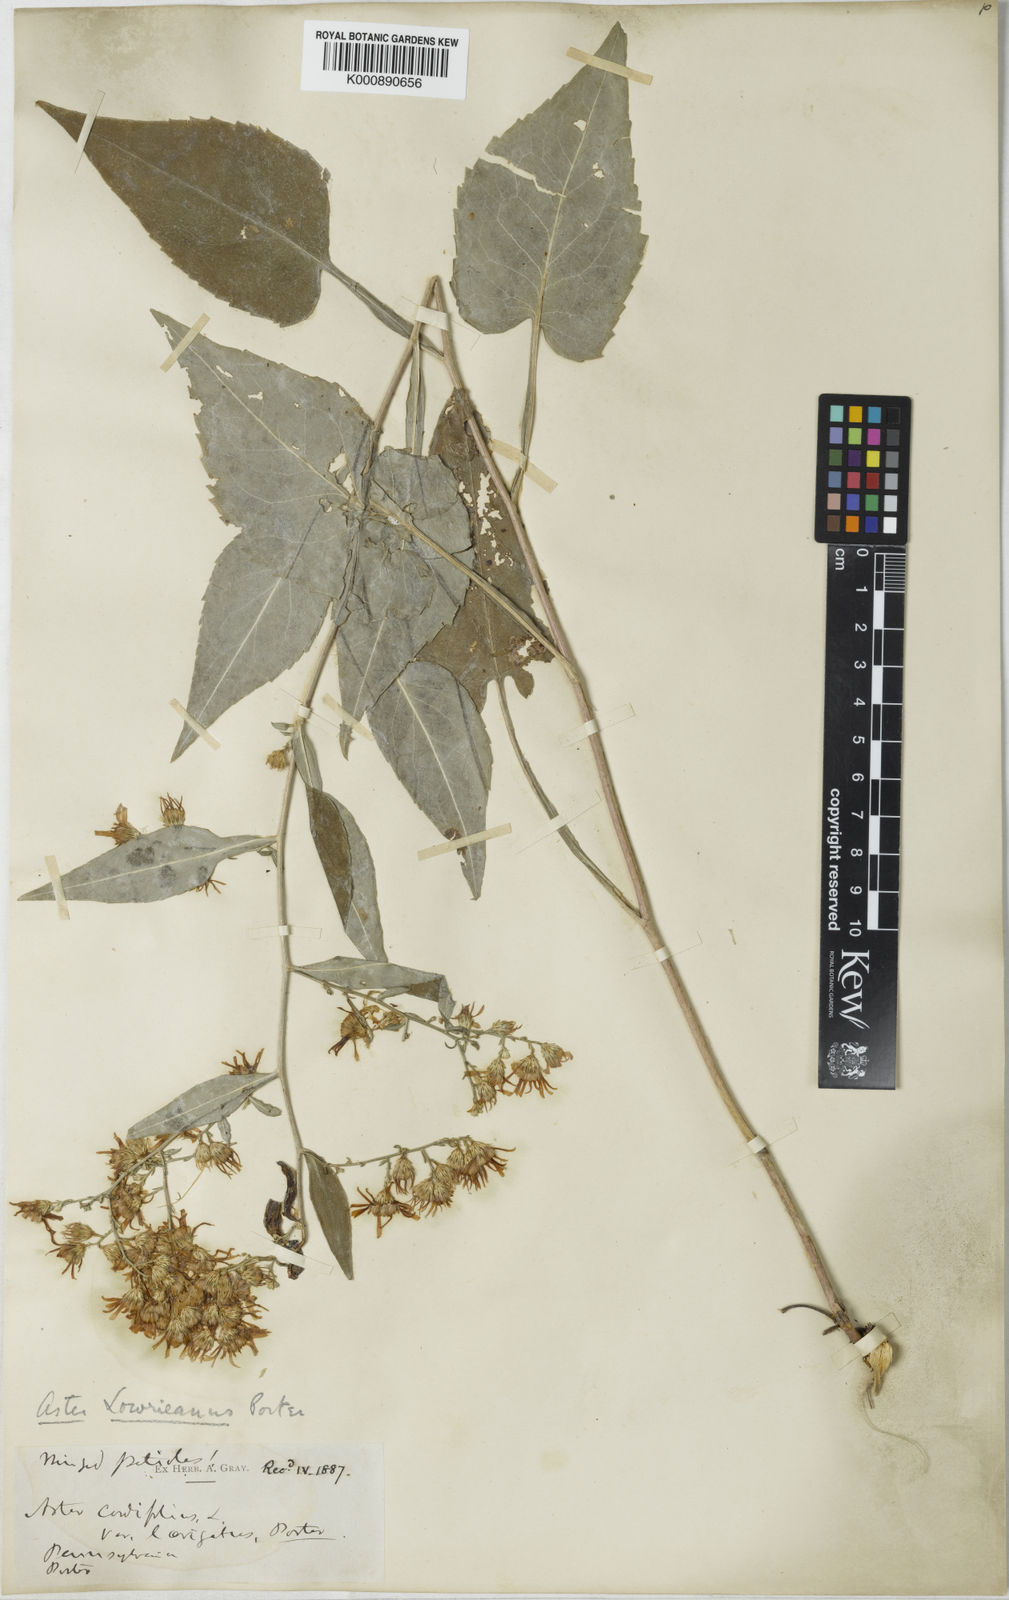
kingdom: Plantae
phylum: Tracheophyta
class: Magnoliopsida
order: Asterales
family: Asteraceae
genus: Symphyotrichum
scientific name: Symphyotrichum cordifolium
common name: Beeweed
